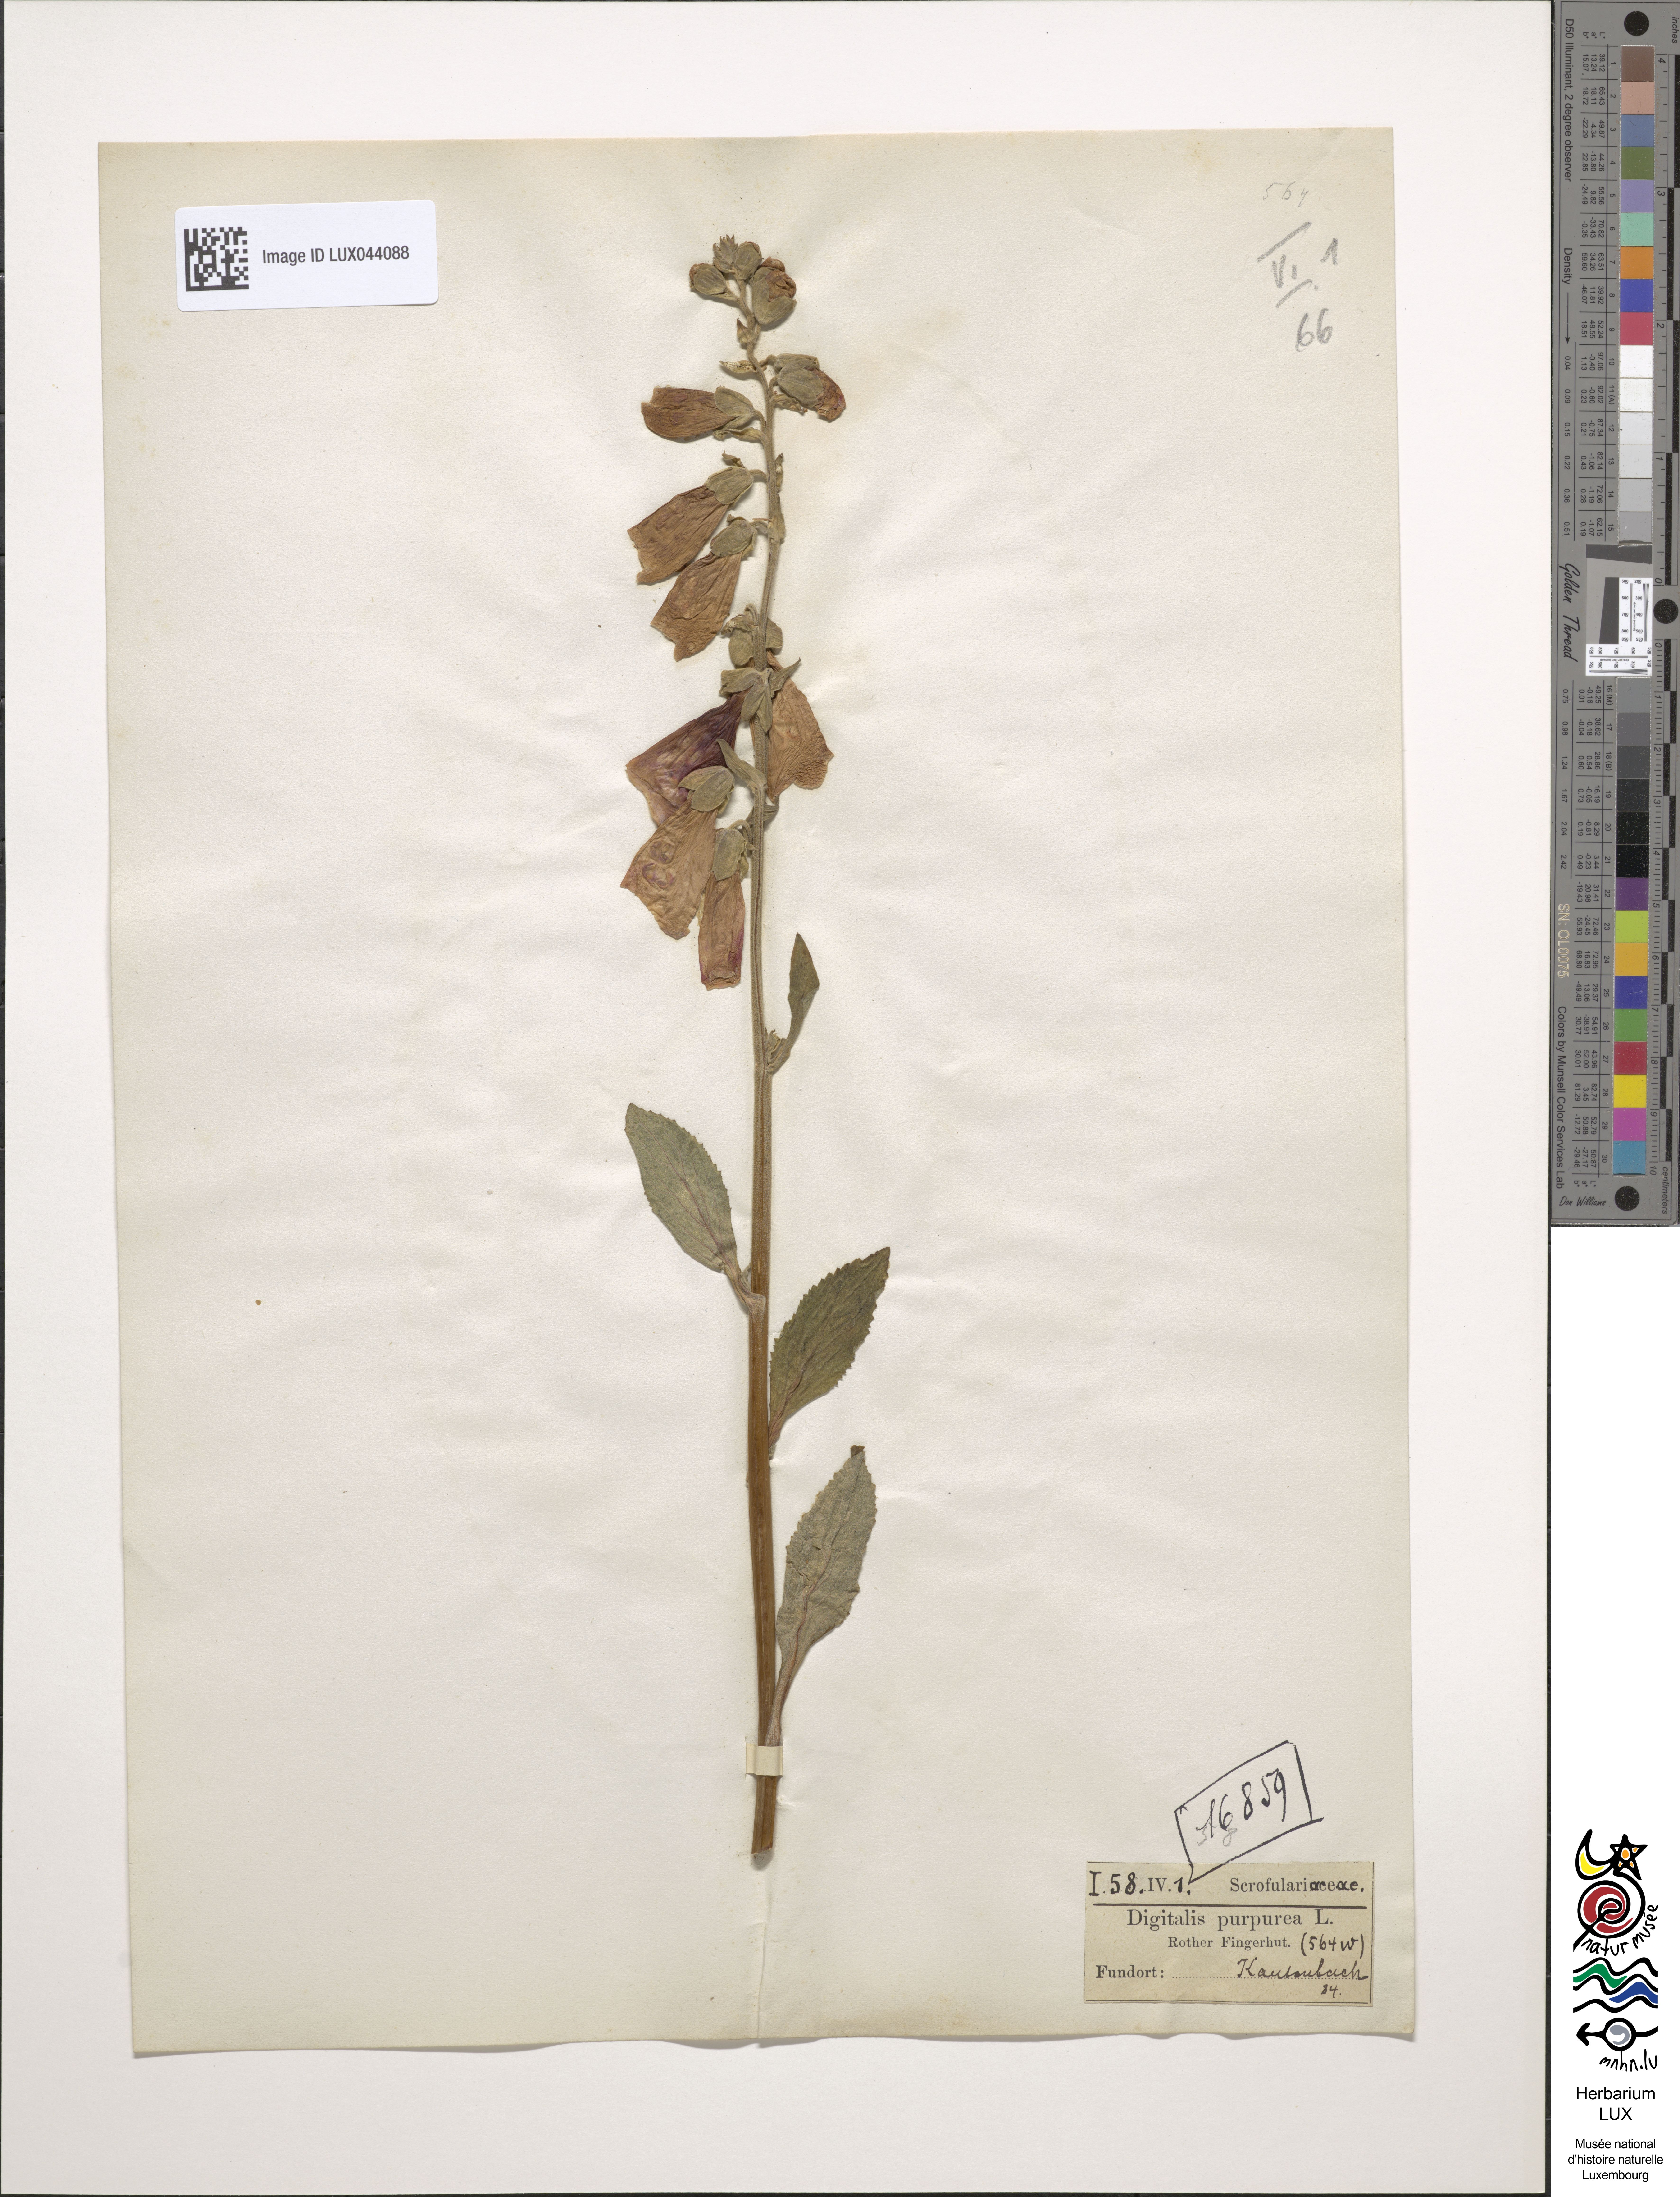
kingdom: Plantae
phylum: Tracheophyta
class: Magnoliopsida
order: Lamiales
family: Plantaginaceae
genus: Digitalis
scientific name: Digitalis purpurea
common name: Foxglove
